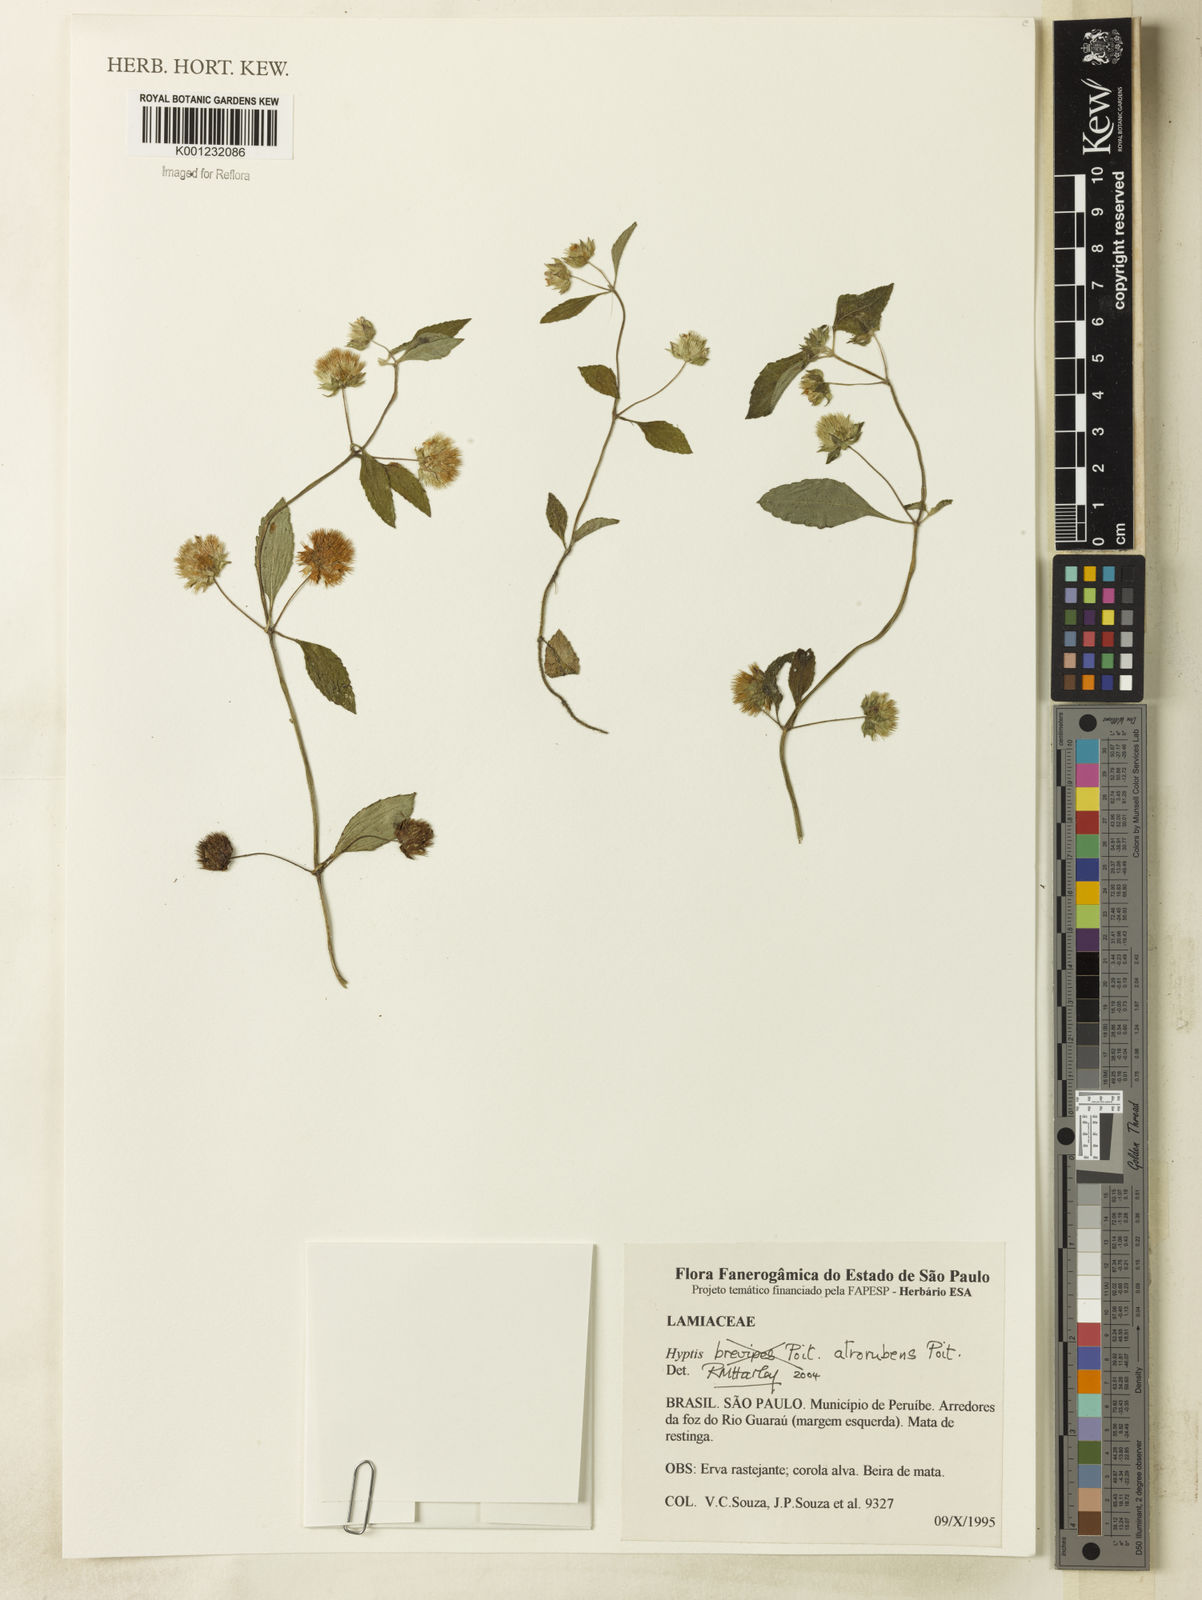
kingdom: Plantae
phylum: Tracheophyta
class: Magnoliopsida
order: Lamiales
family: Lamiaceae
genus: Hyptis
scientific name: Hyptis atrorubens
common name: Lanmant
